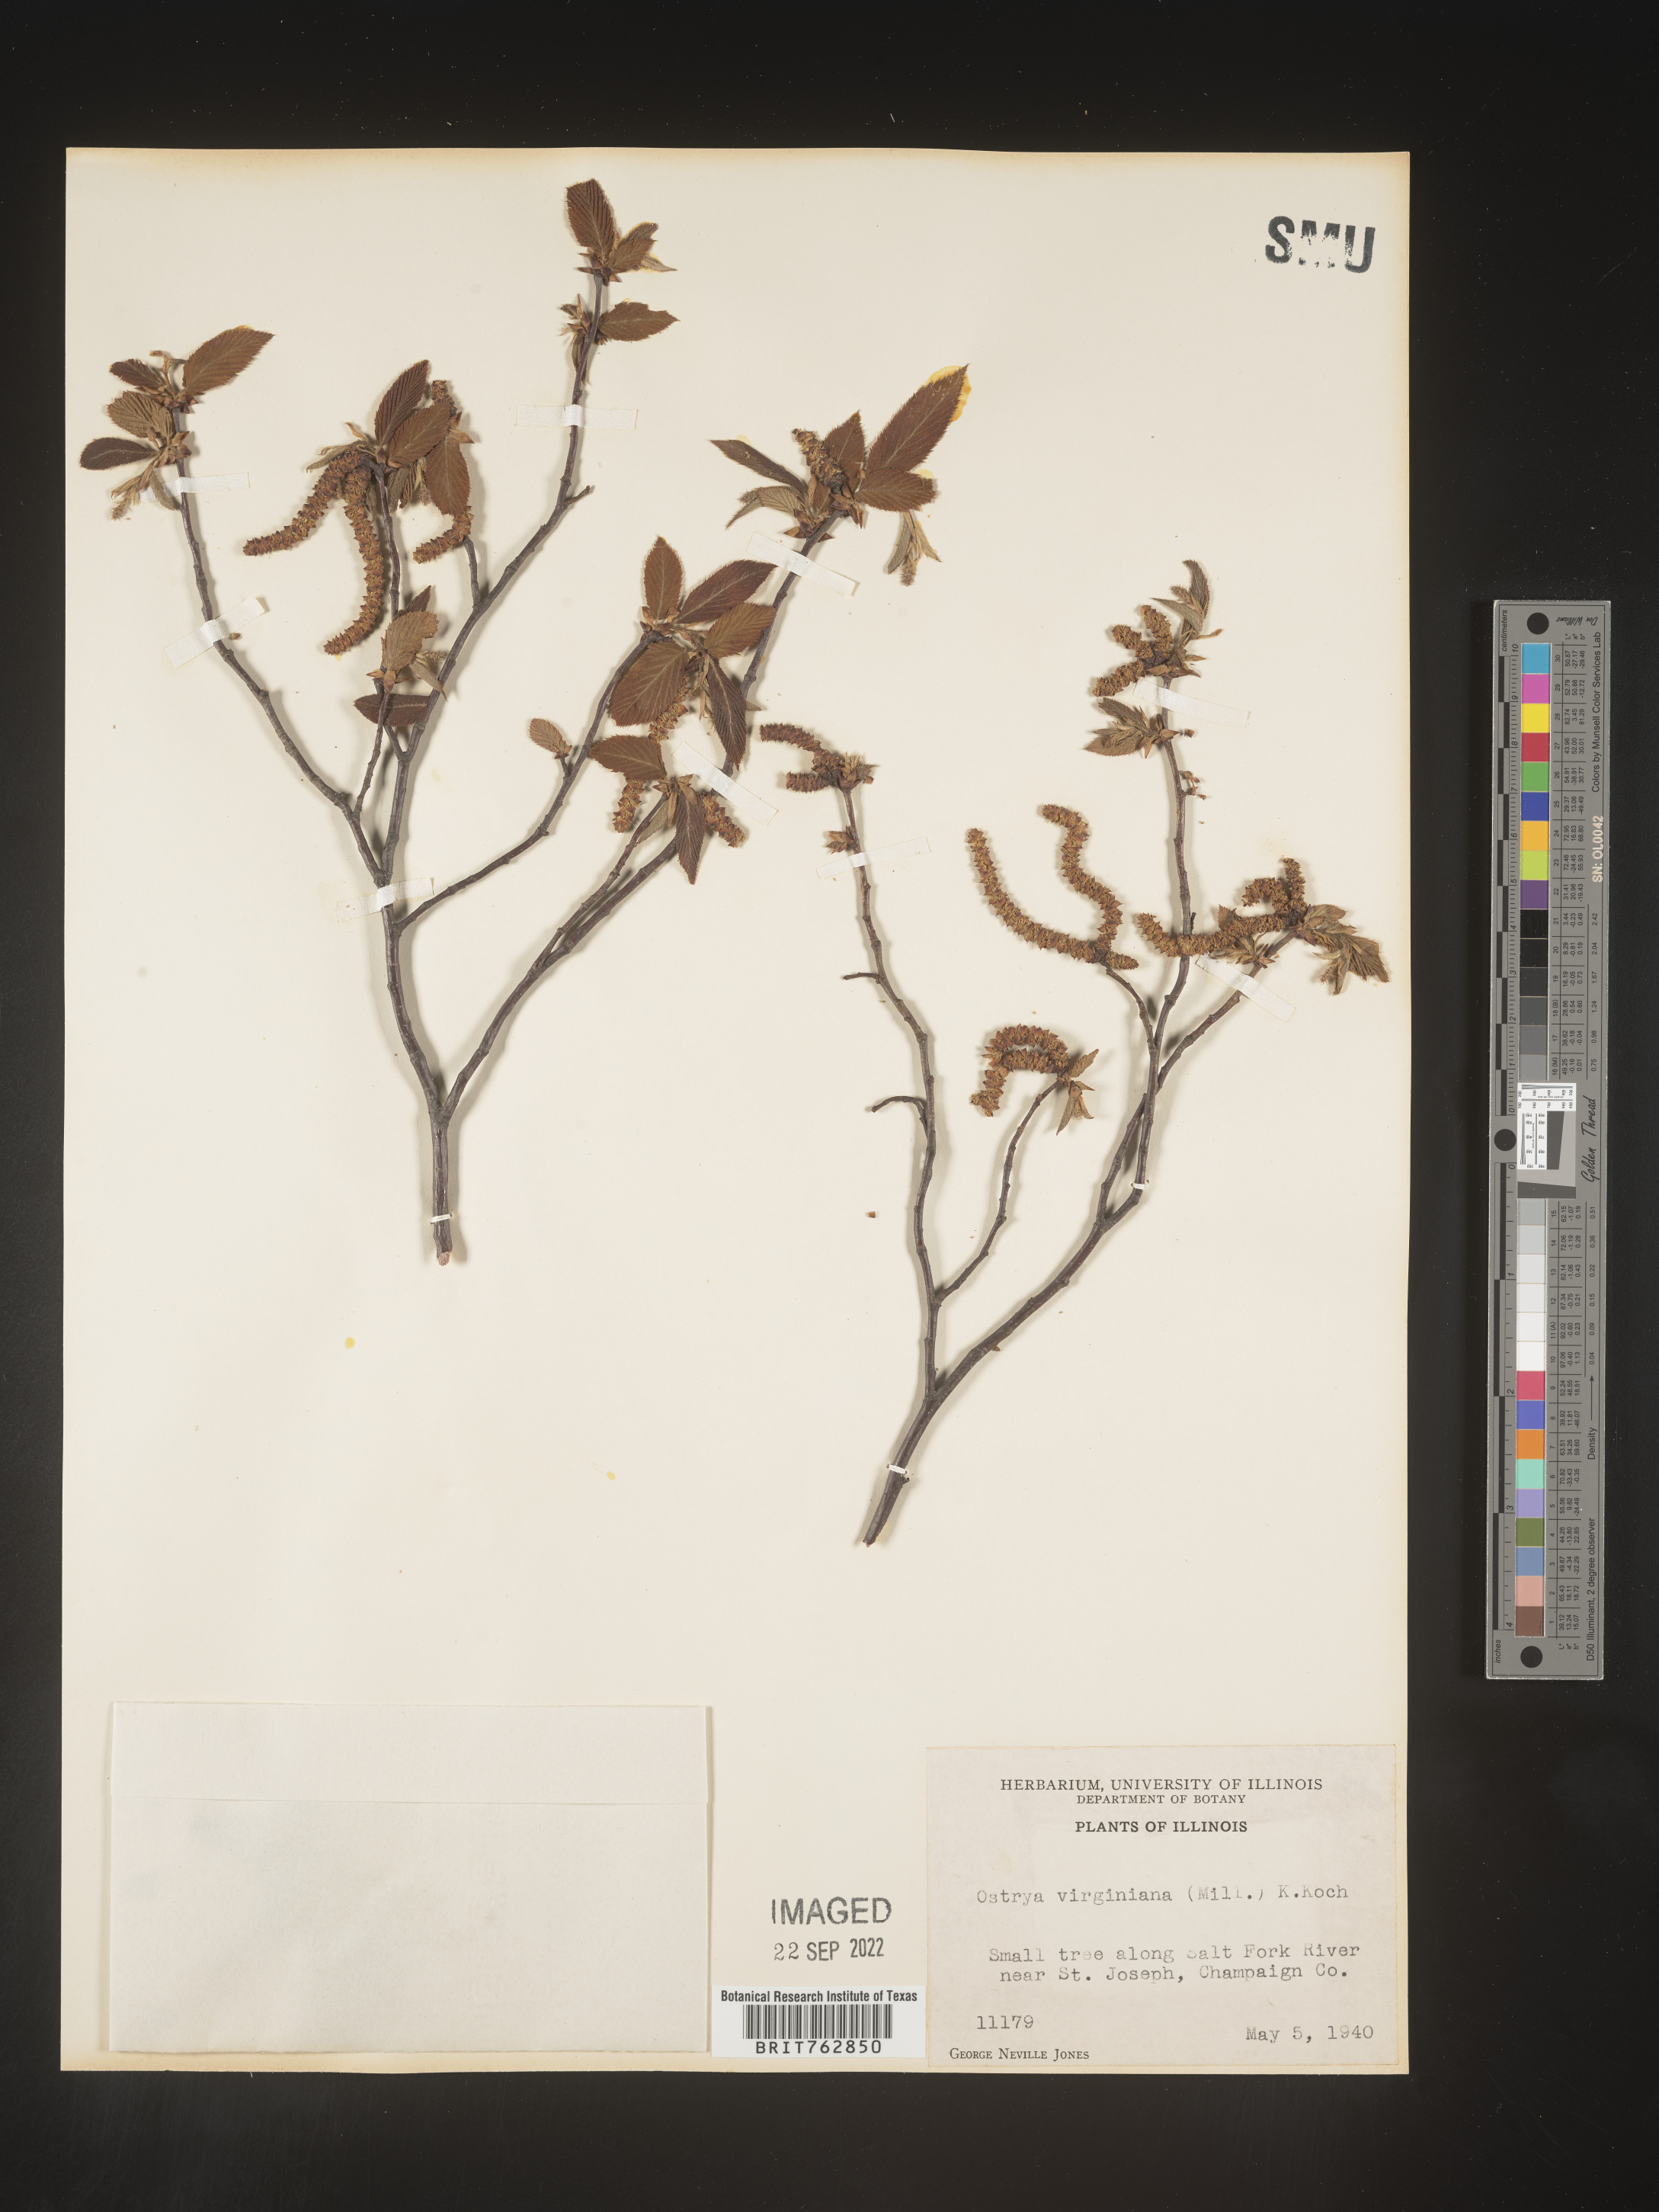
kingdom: Plantae
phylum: Tracheophyta
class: Magnoliopsida
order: Fagales
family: Betulaceae
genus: Ostrya
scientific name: Ostrya virginiana
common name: Ironwood
